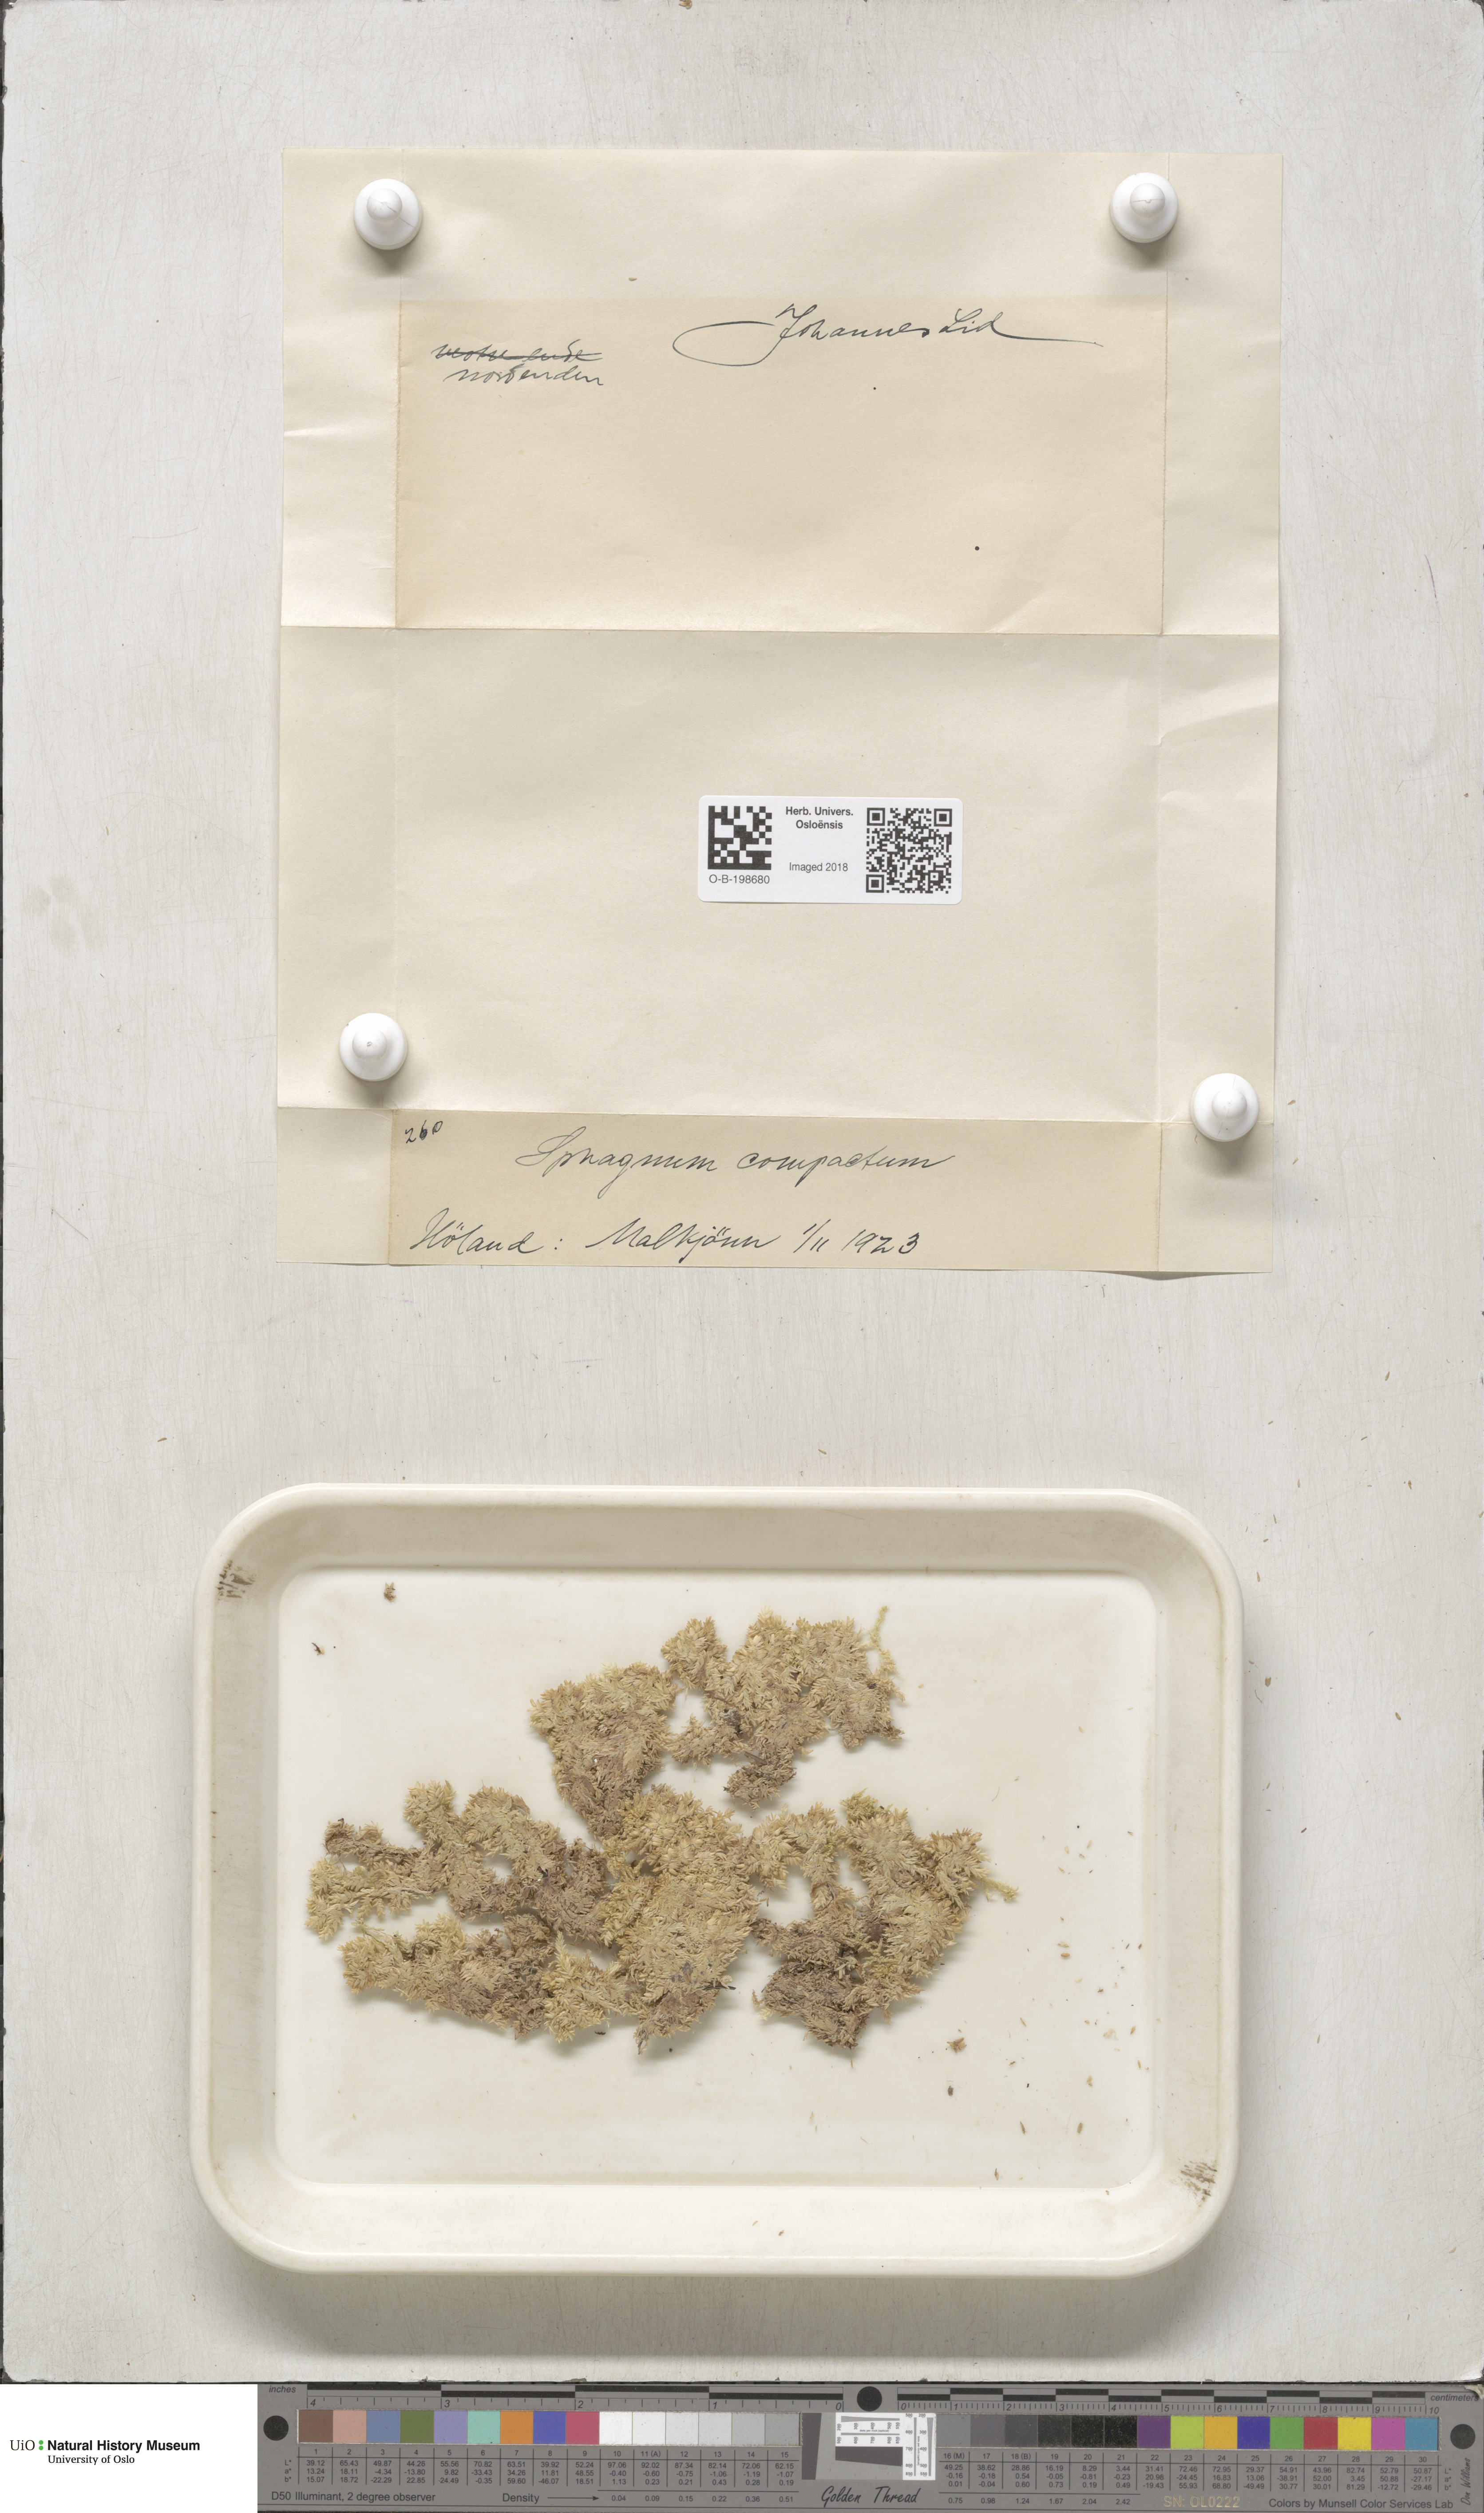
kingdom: Plantae
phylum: Bryophyta
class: Sphagnopsida
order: Sphagnales
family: Sphagnaceae
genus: Sphagnum
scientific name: Sphagnum compactum
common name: Compact peat moss
